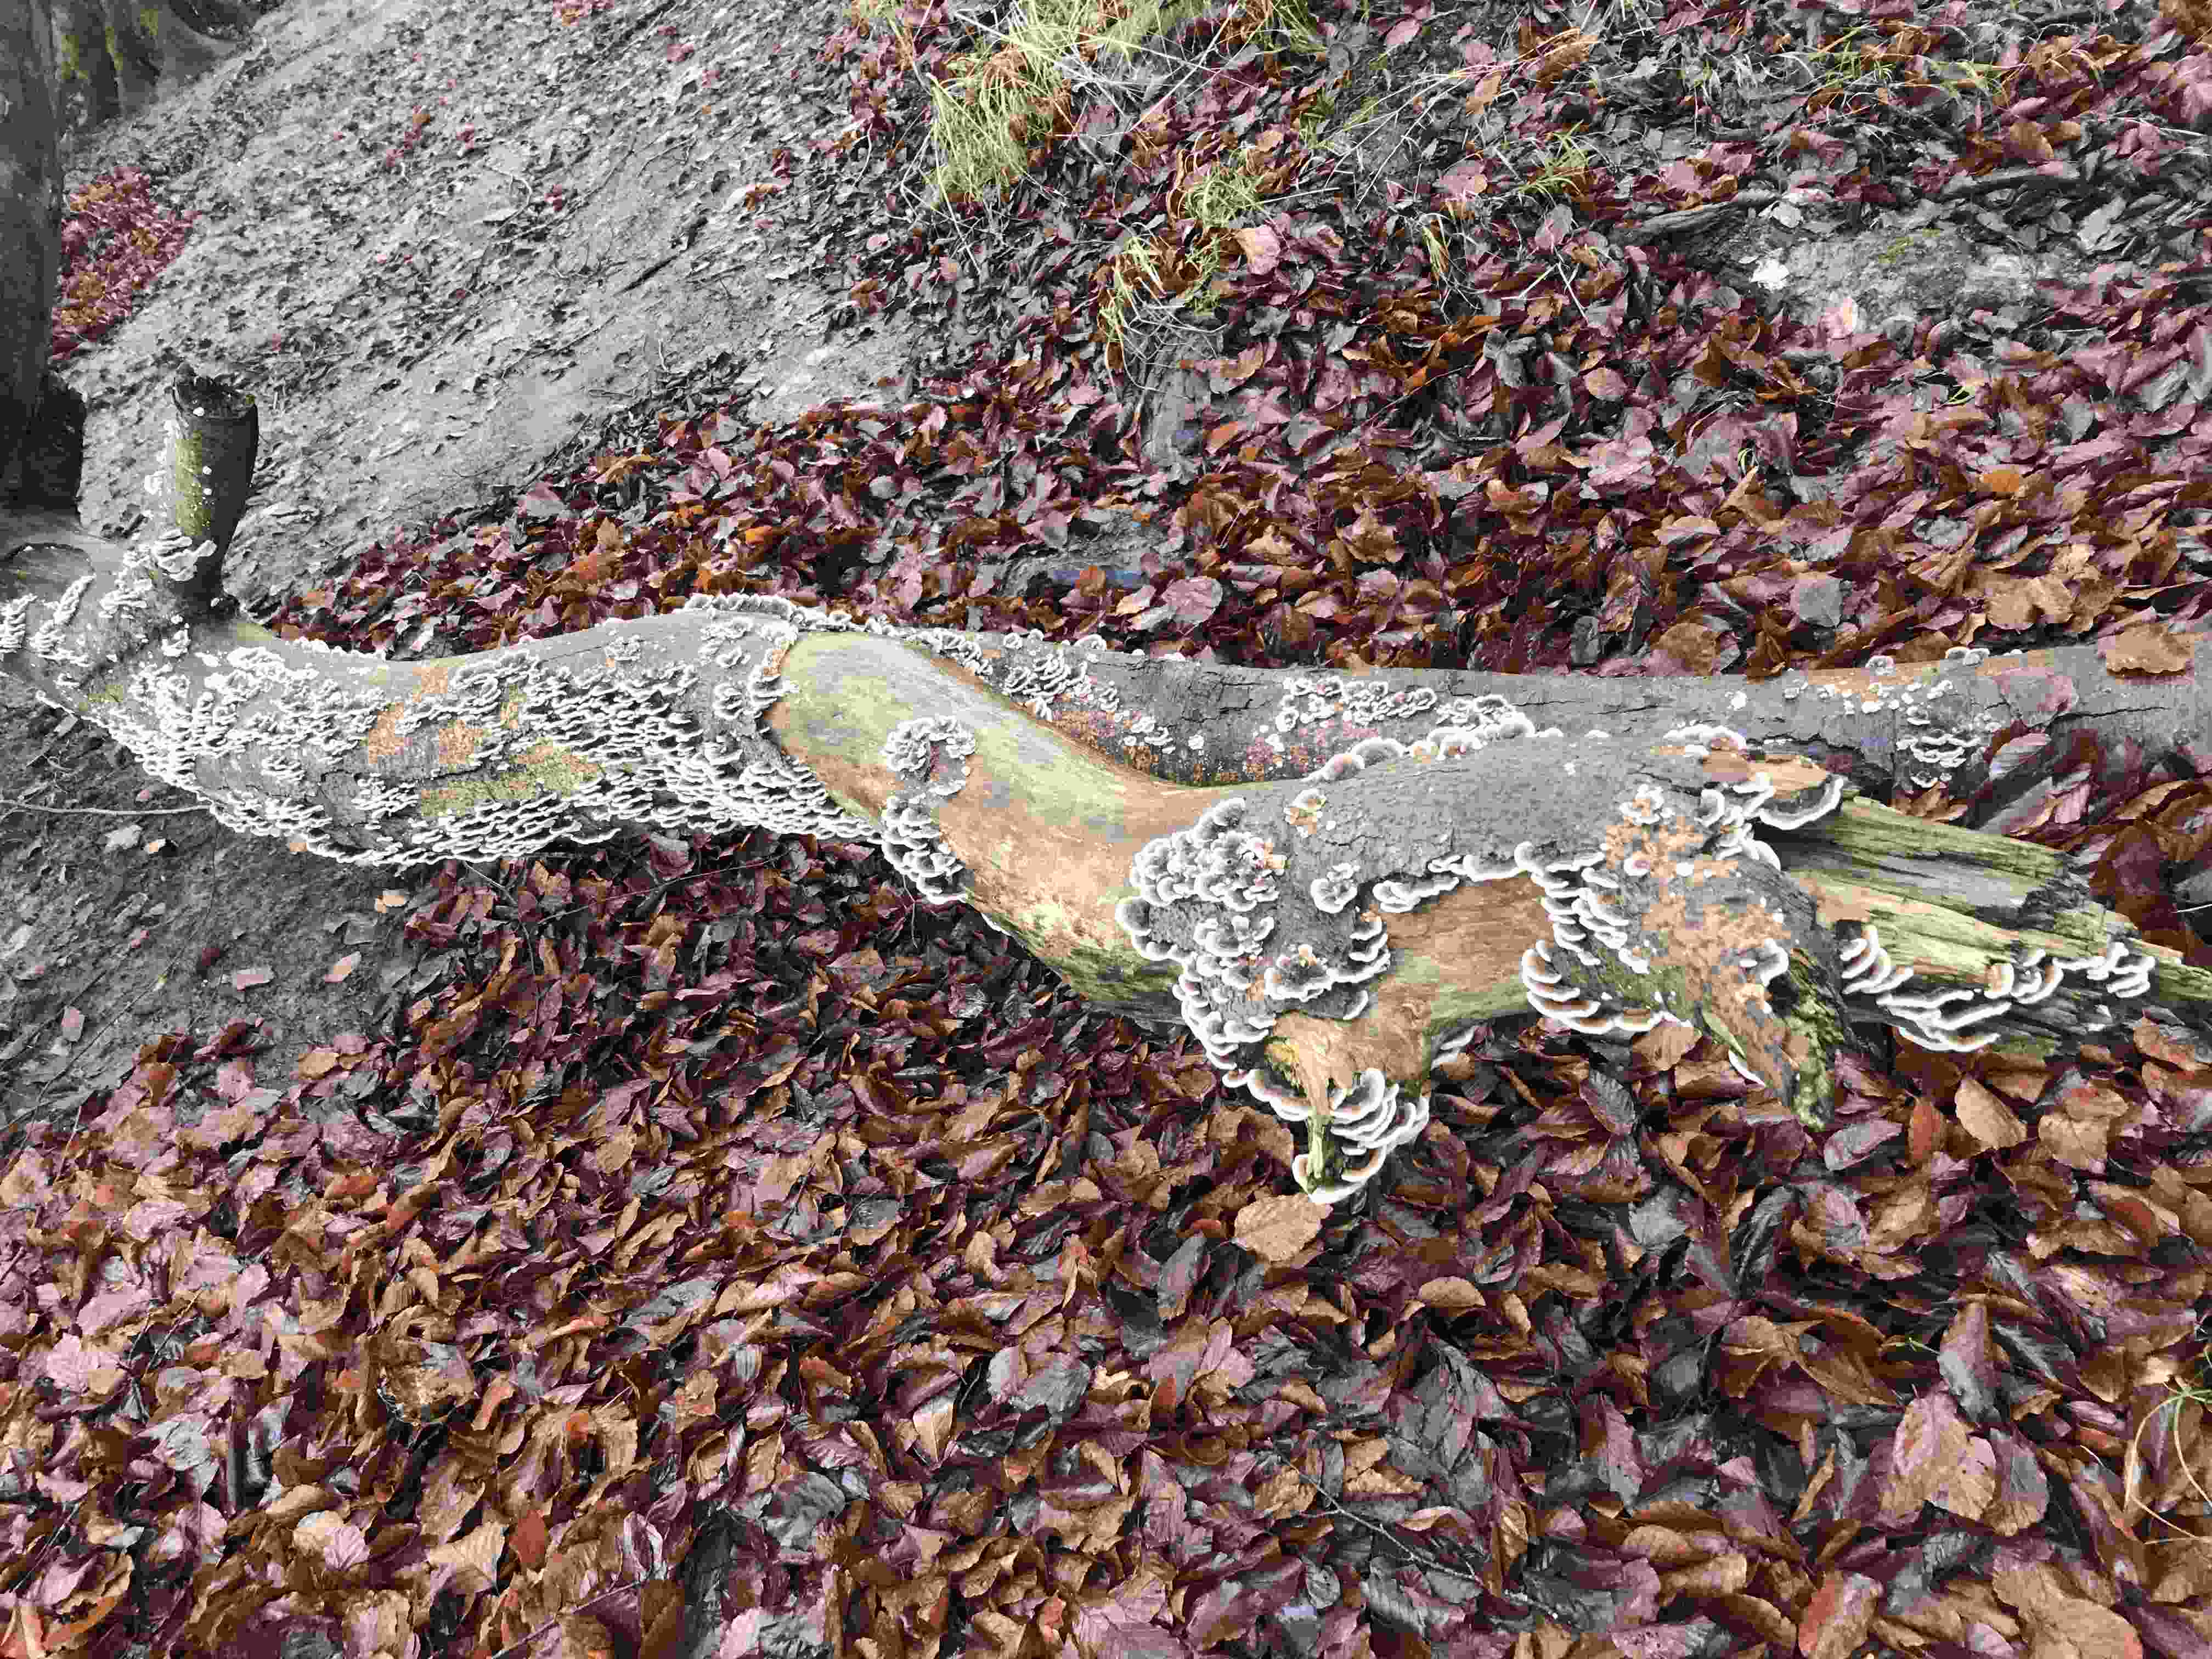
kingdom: Fungi
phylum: Basidiomycota
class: Agaricomycetes
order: Polyporales
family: Polyporaceae
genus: Trametes
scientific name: Trametes versicolor
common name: broget læderporesvamp
